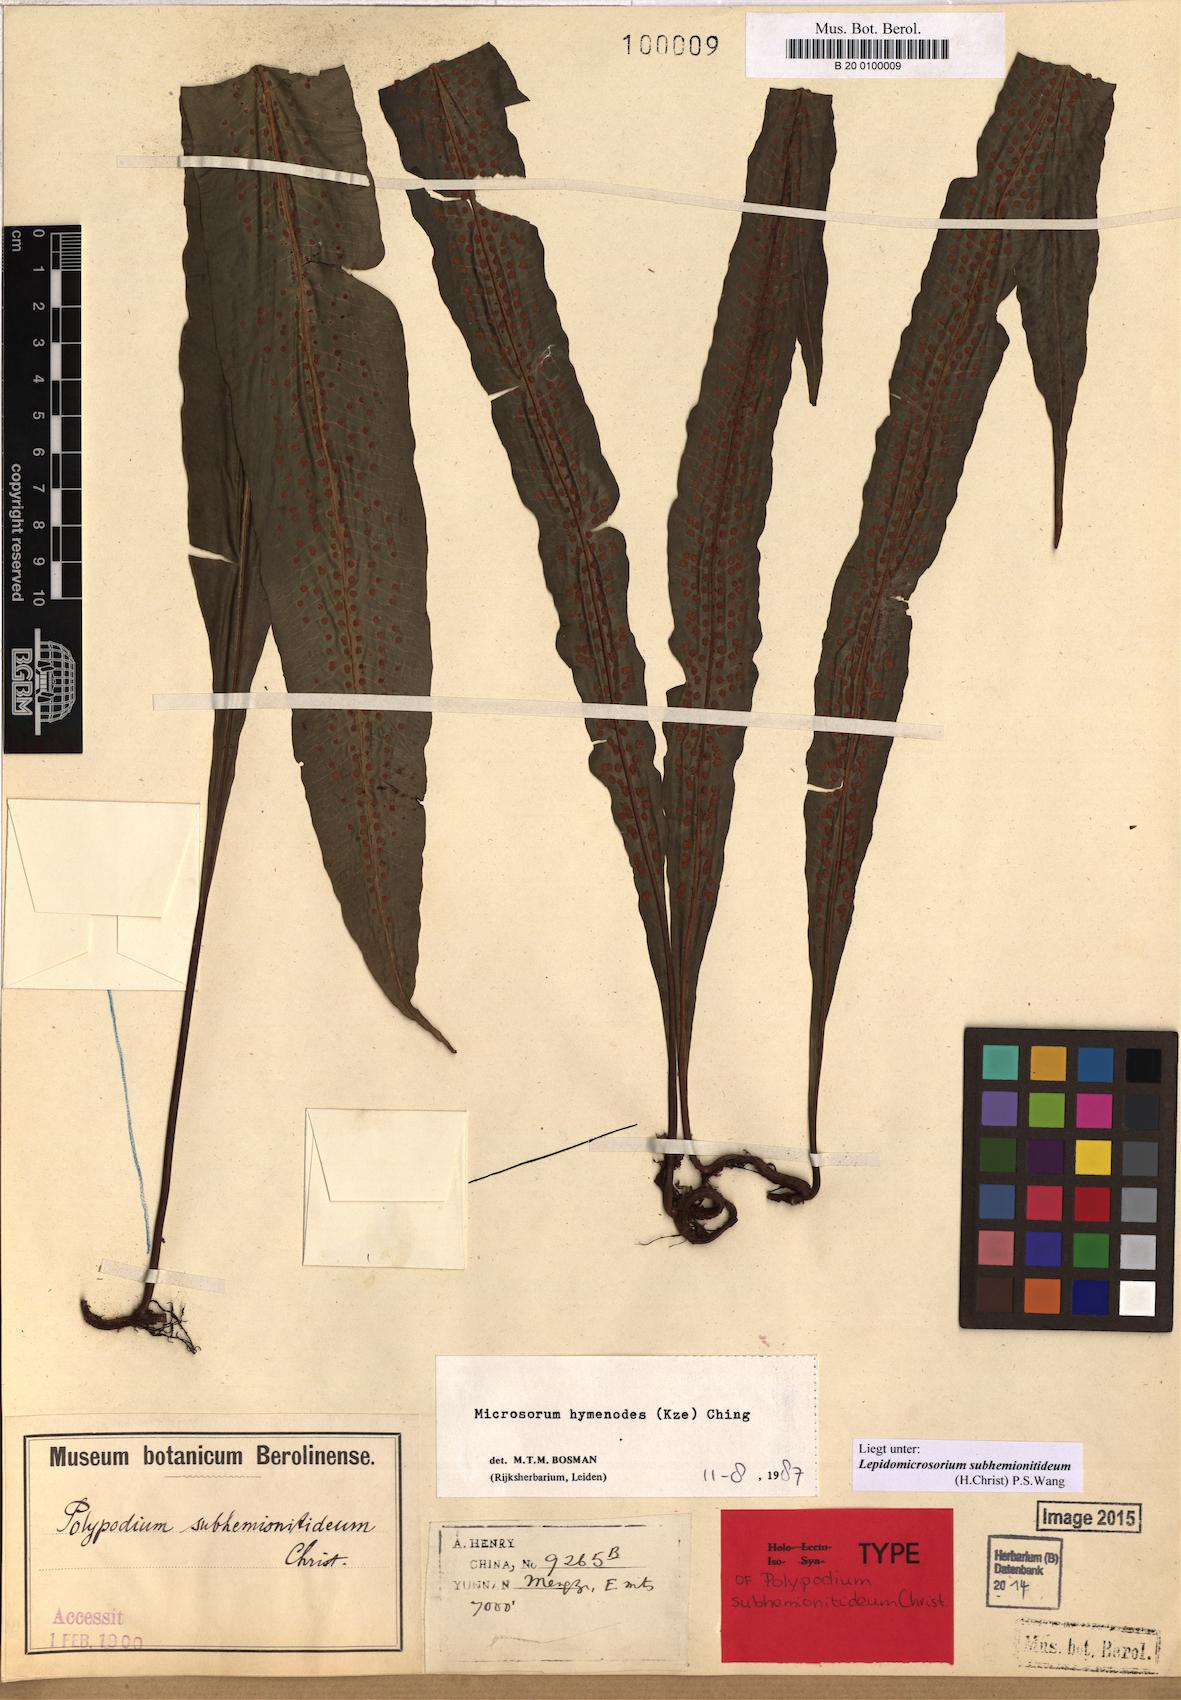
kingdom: Plantae
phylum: Tracheophyta
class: Polypodiopsida
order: Polypodiales
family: Polypodiaceae
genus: Lepisorus
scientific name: Lepisorus subhemionitideus
